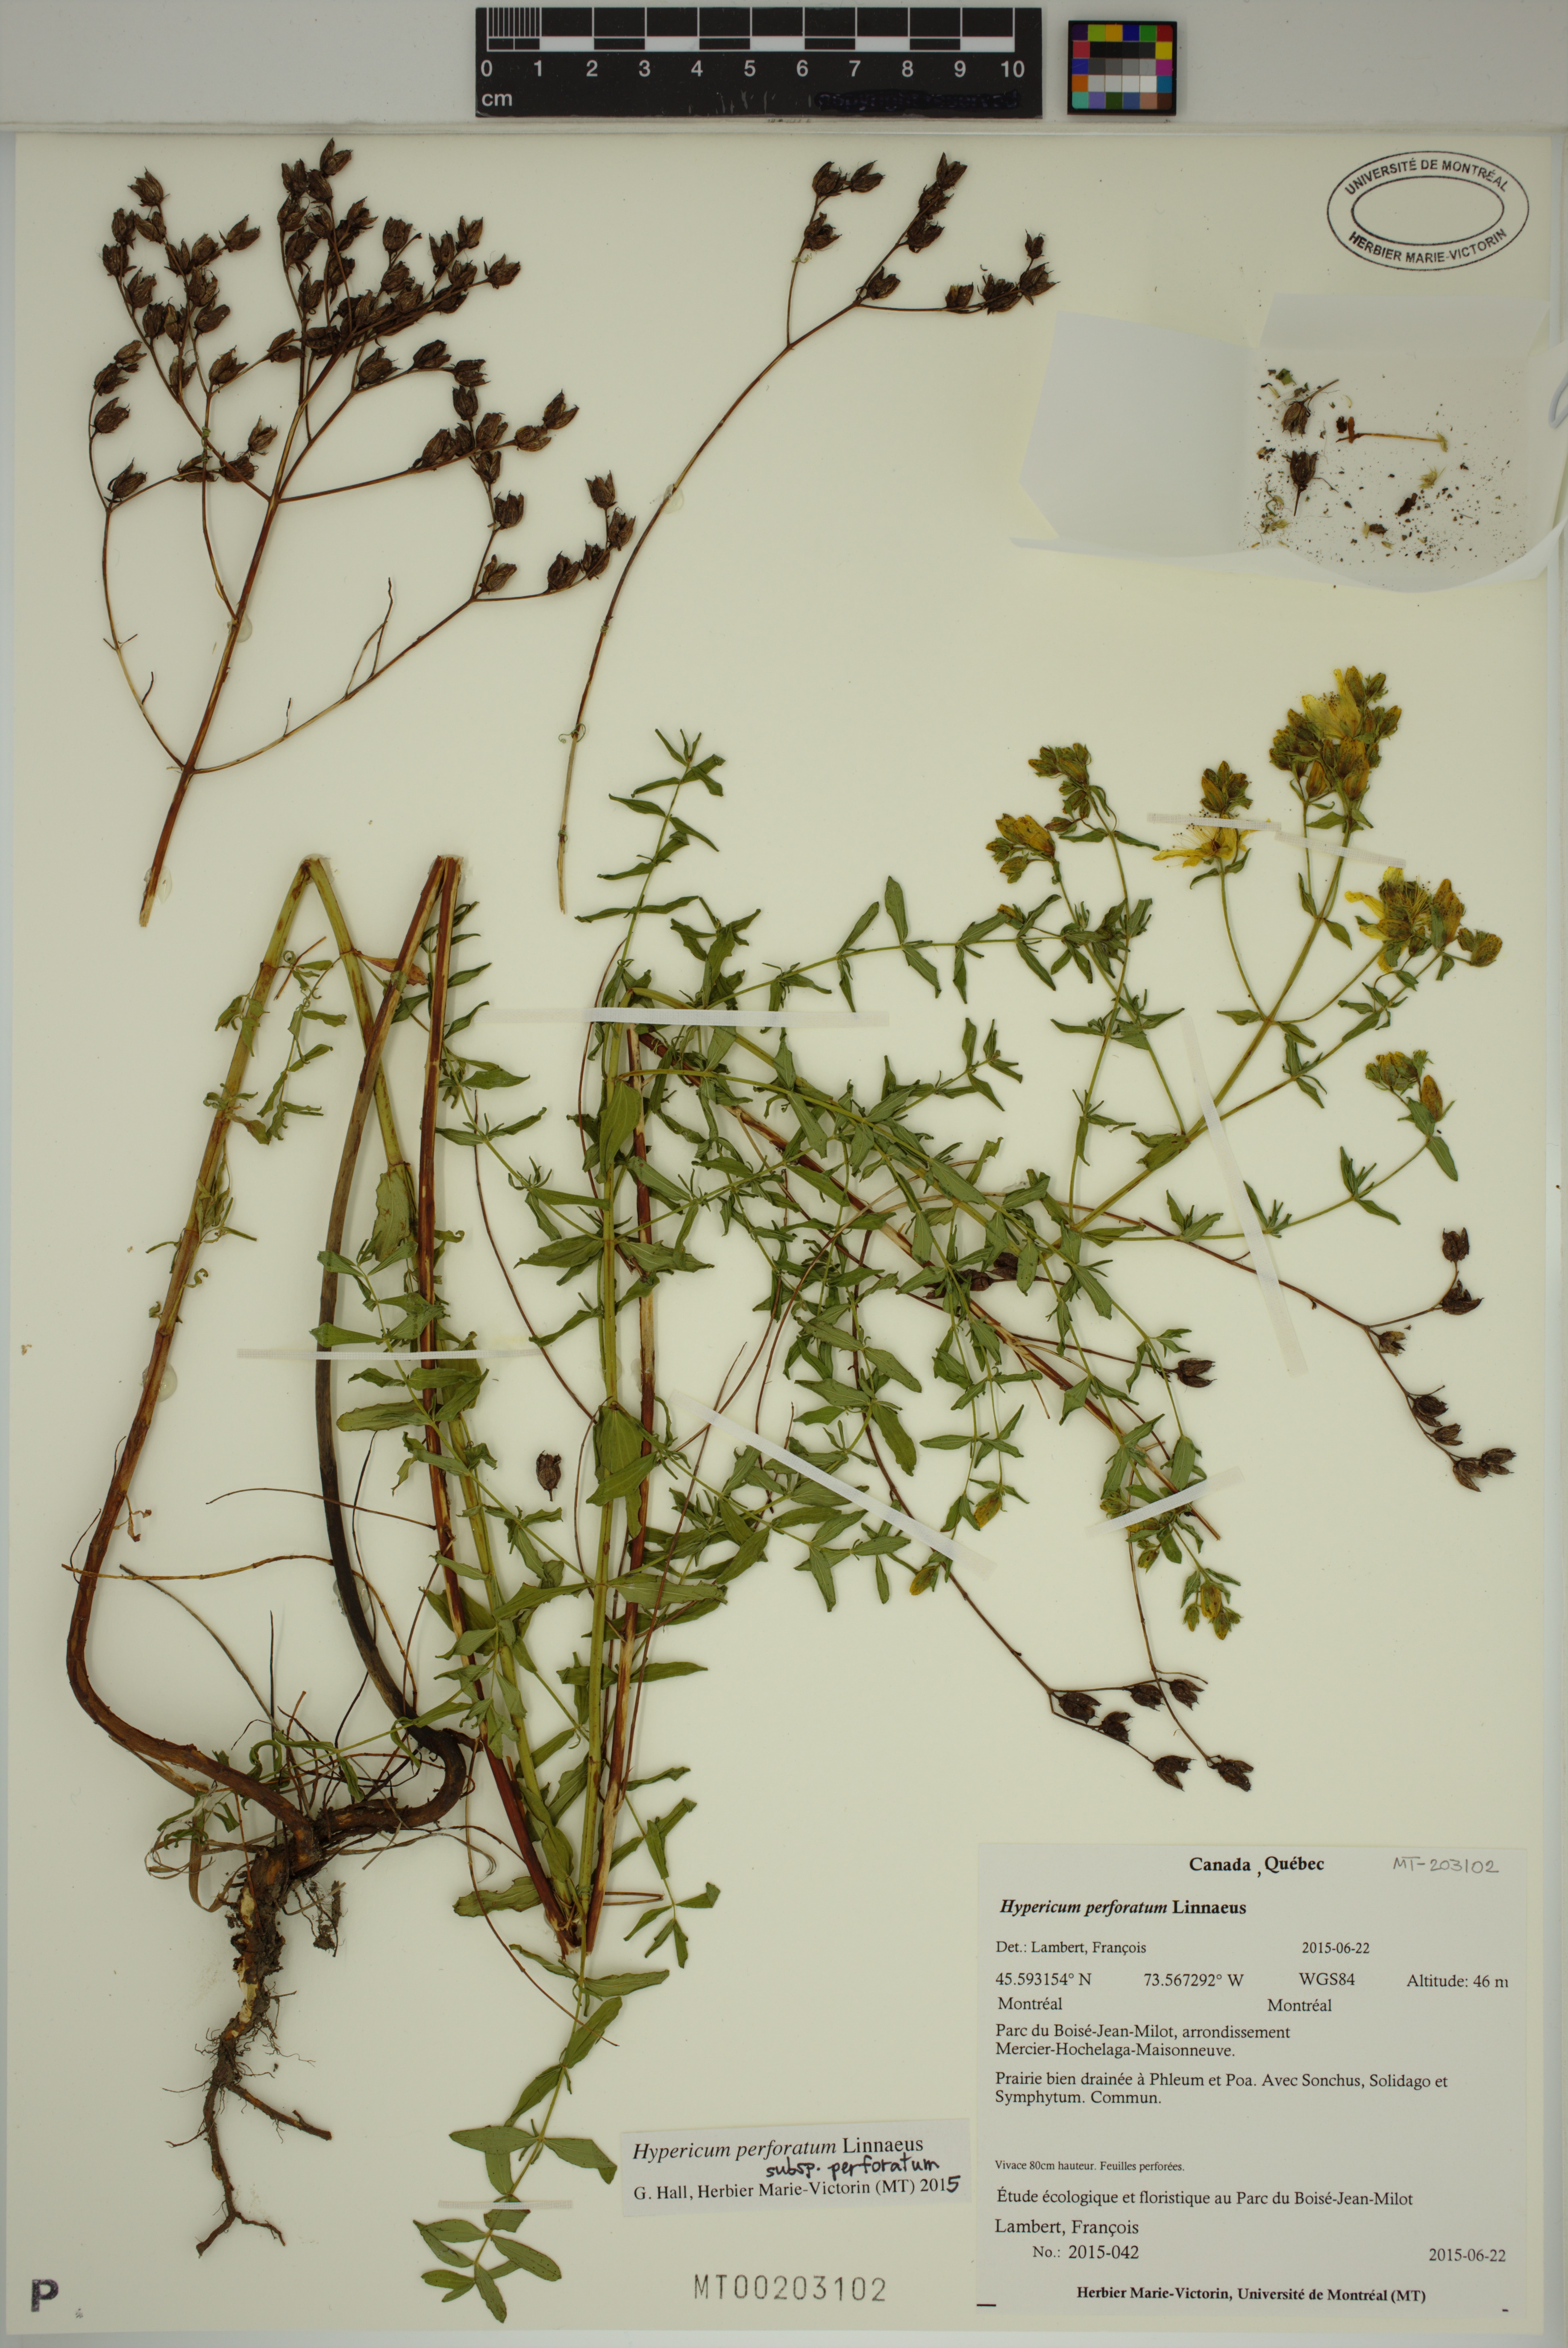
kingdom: Plantae
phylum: Tracheophyta
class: Magnoliopsida
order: Malpighiales
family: Hypericaceae
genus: Hypericum
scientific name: Hypericum perforatum
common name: Common st. johnswort
